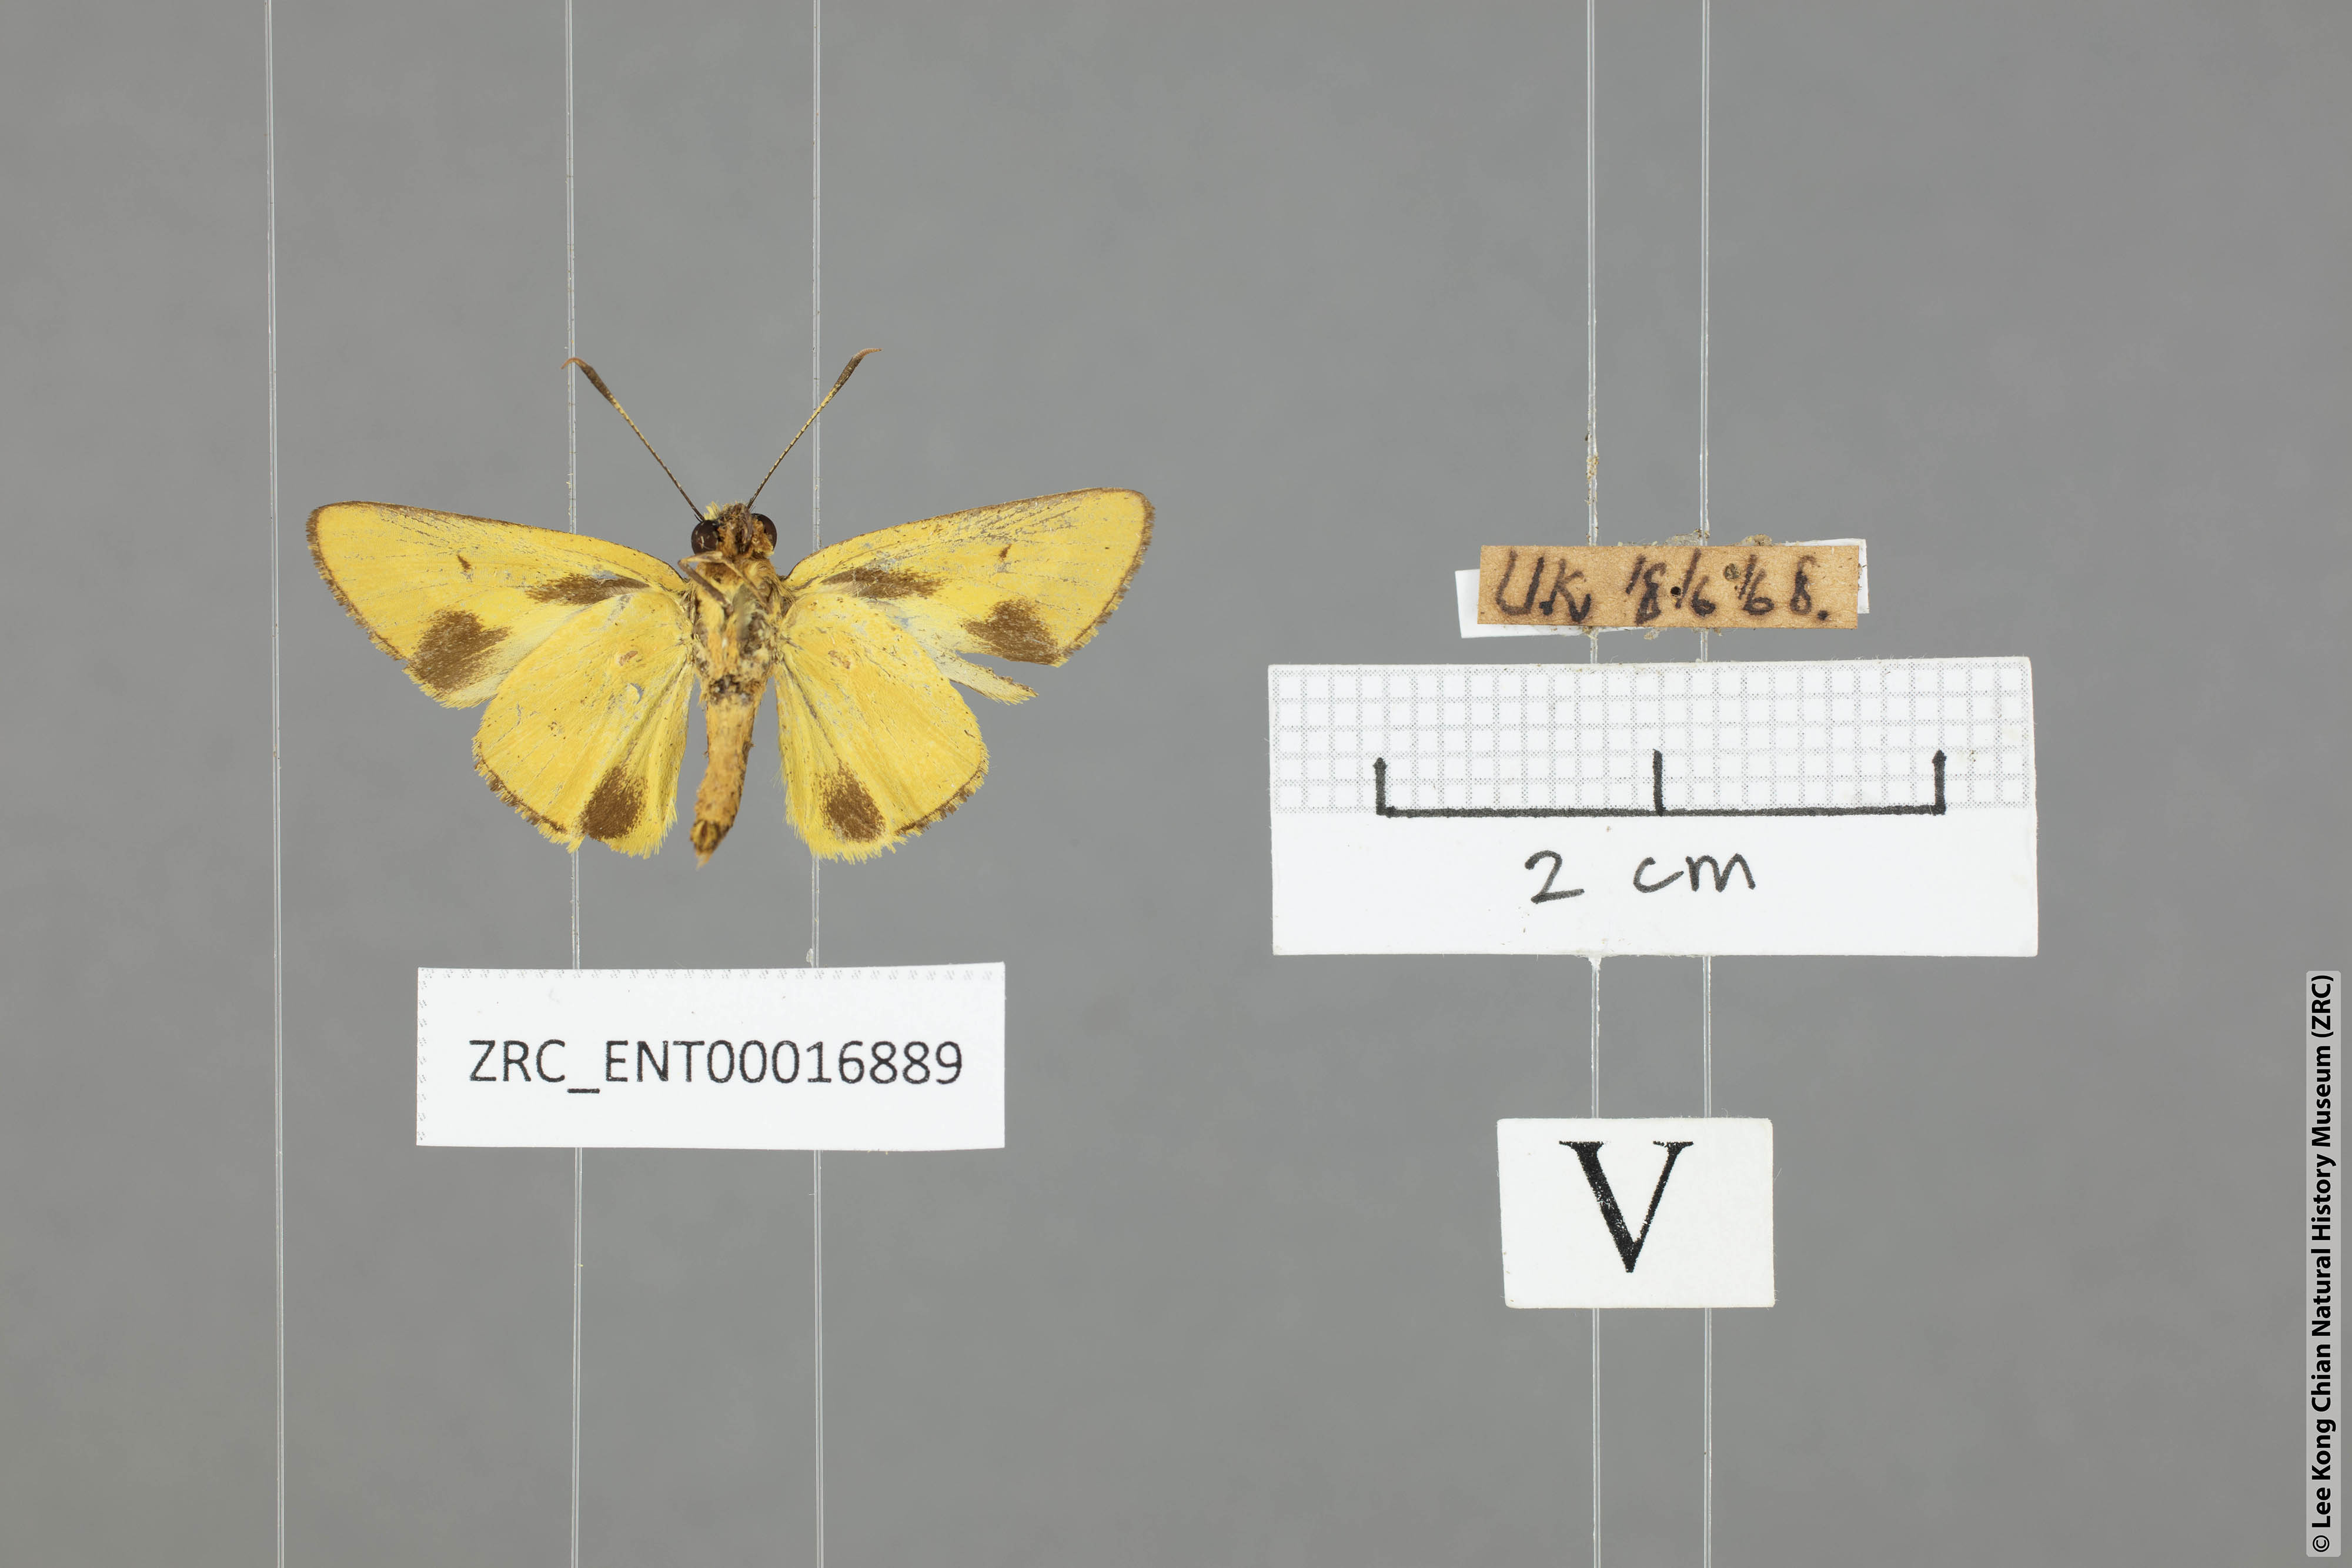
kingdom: Animalia
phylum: Arthropoda
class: Insecta
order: Lepidoptera
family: Hesperiidae
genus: Cupitha
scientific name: Cupitha purreea
